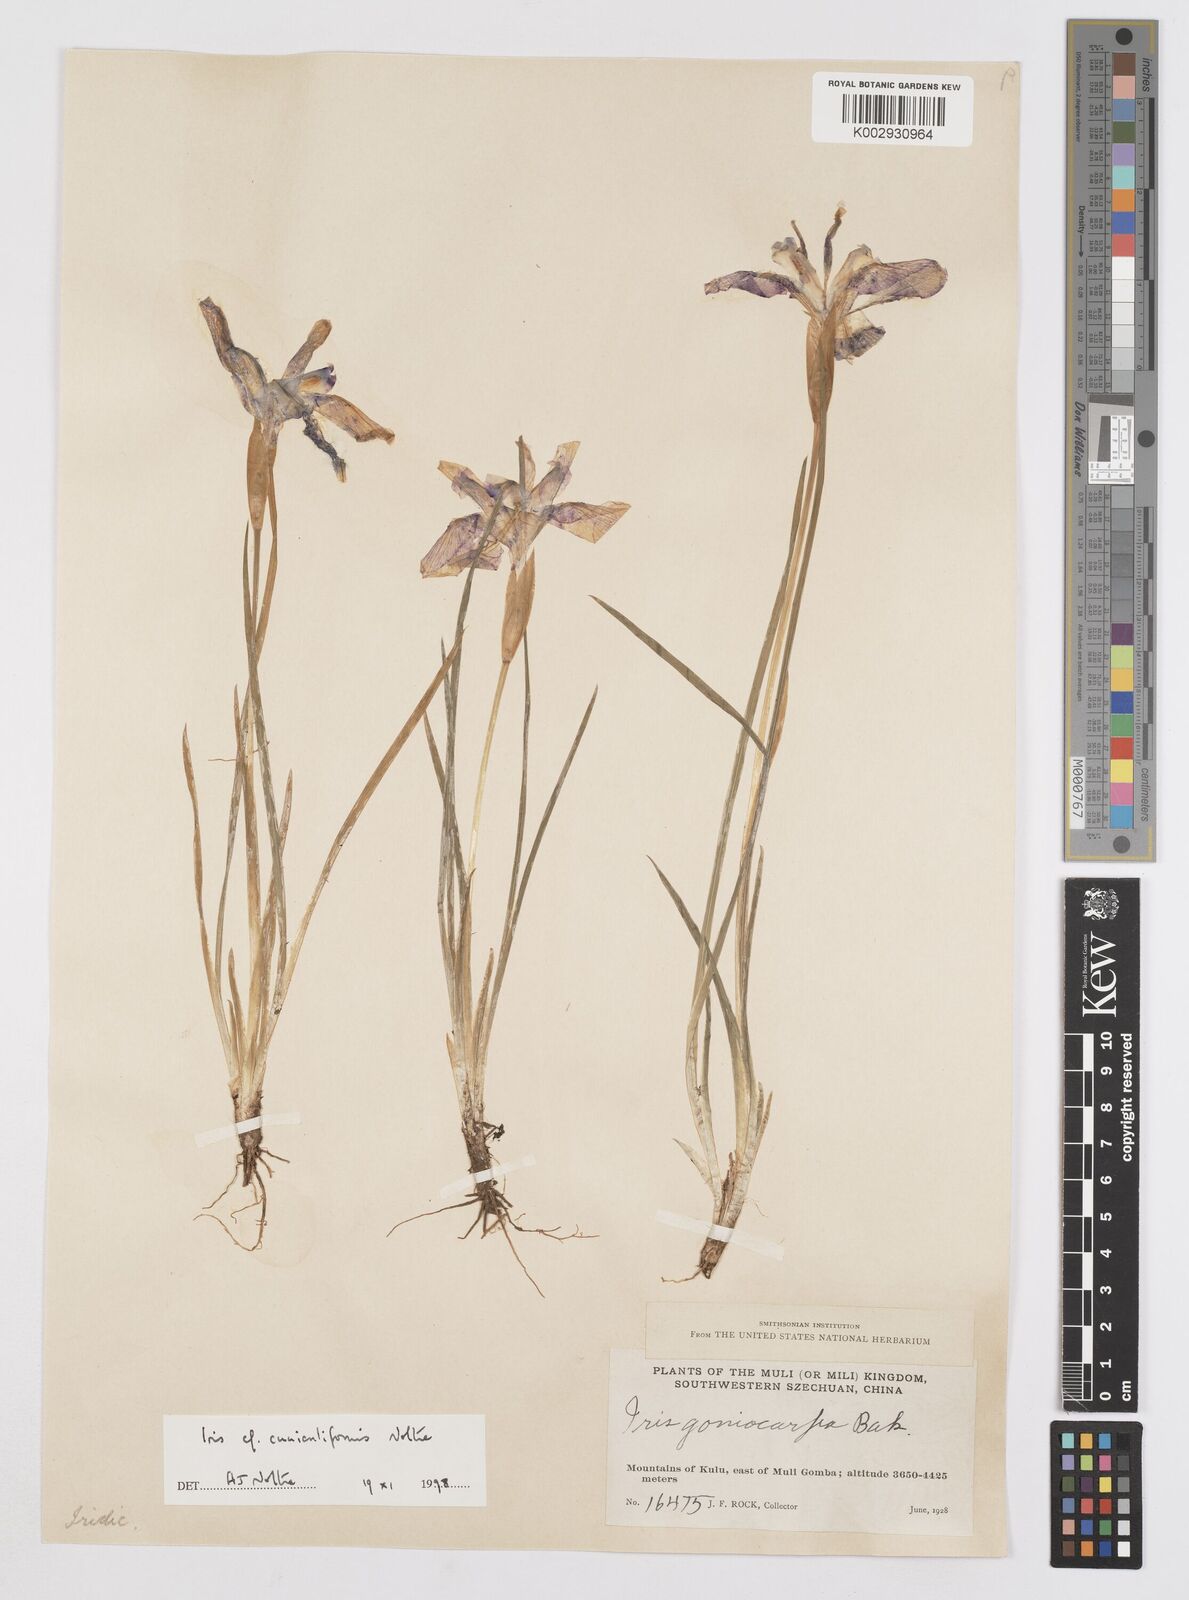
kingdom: Plantae
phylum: Tracheophyta
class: Liliopsida
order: Asparagales
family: Iridaceae
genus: Iris
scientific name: Iris cuniculiformis
